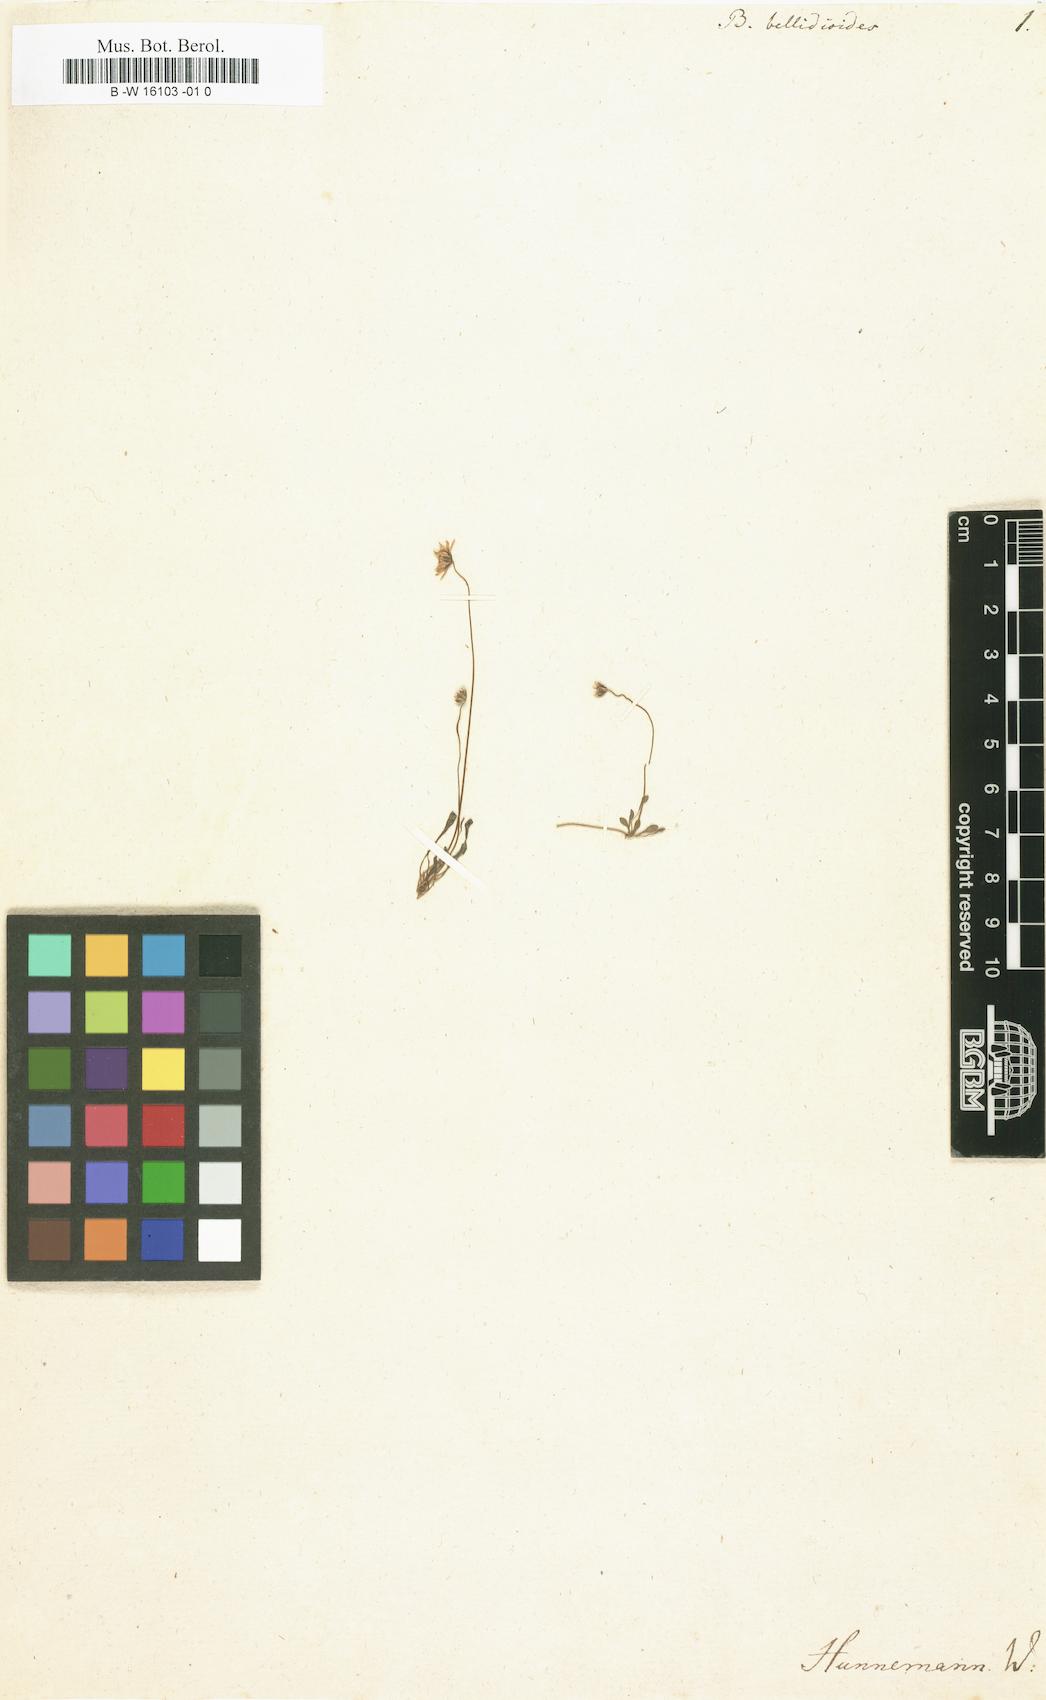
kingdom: Plantae
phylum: Tracheophyta
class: Magnoliopsida
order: Asterales
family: Asteraceae
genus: Bellium
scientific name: Bellium bellidioides
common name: False daisy
